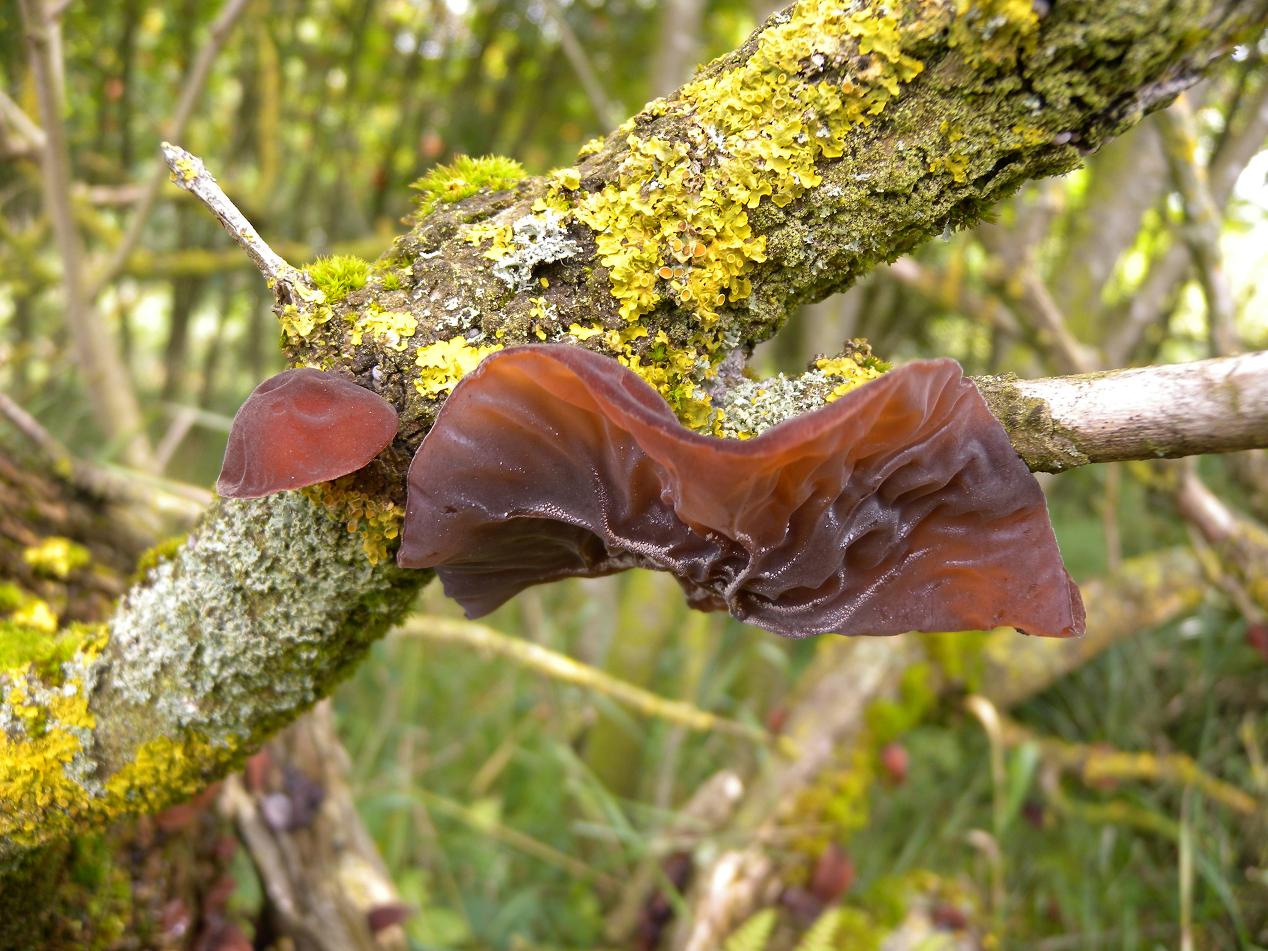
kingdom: Fungi
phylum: Basidiomycota
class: Agaricomycetes
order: Auriculariales
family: Auriculariaceae
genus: Auricularia
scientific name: Auricularia auricula-judae
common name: almindelig judasøre
